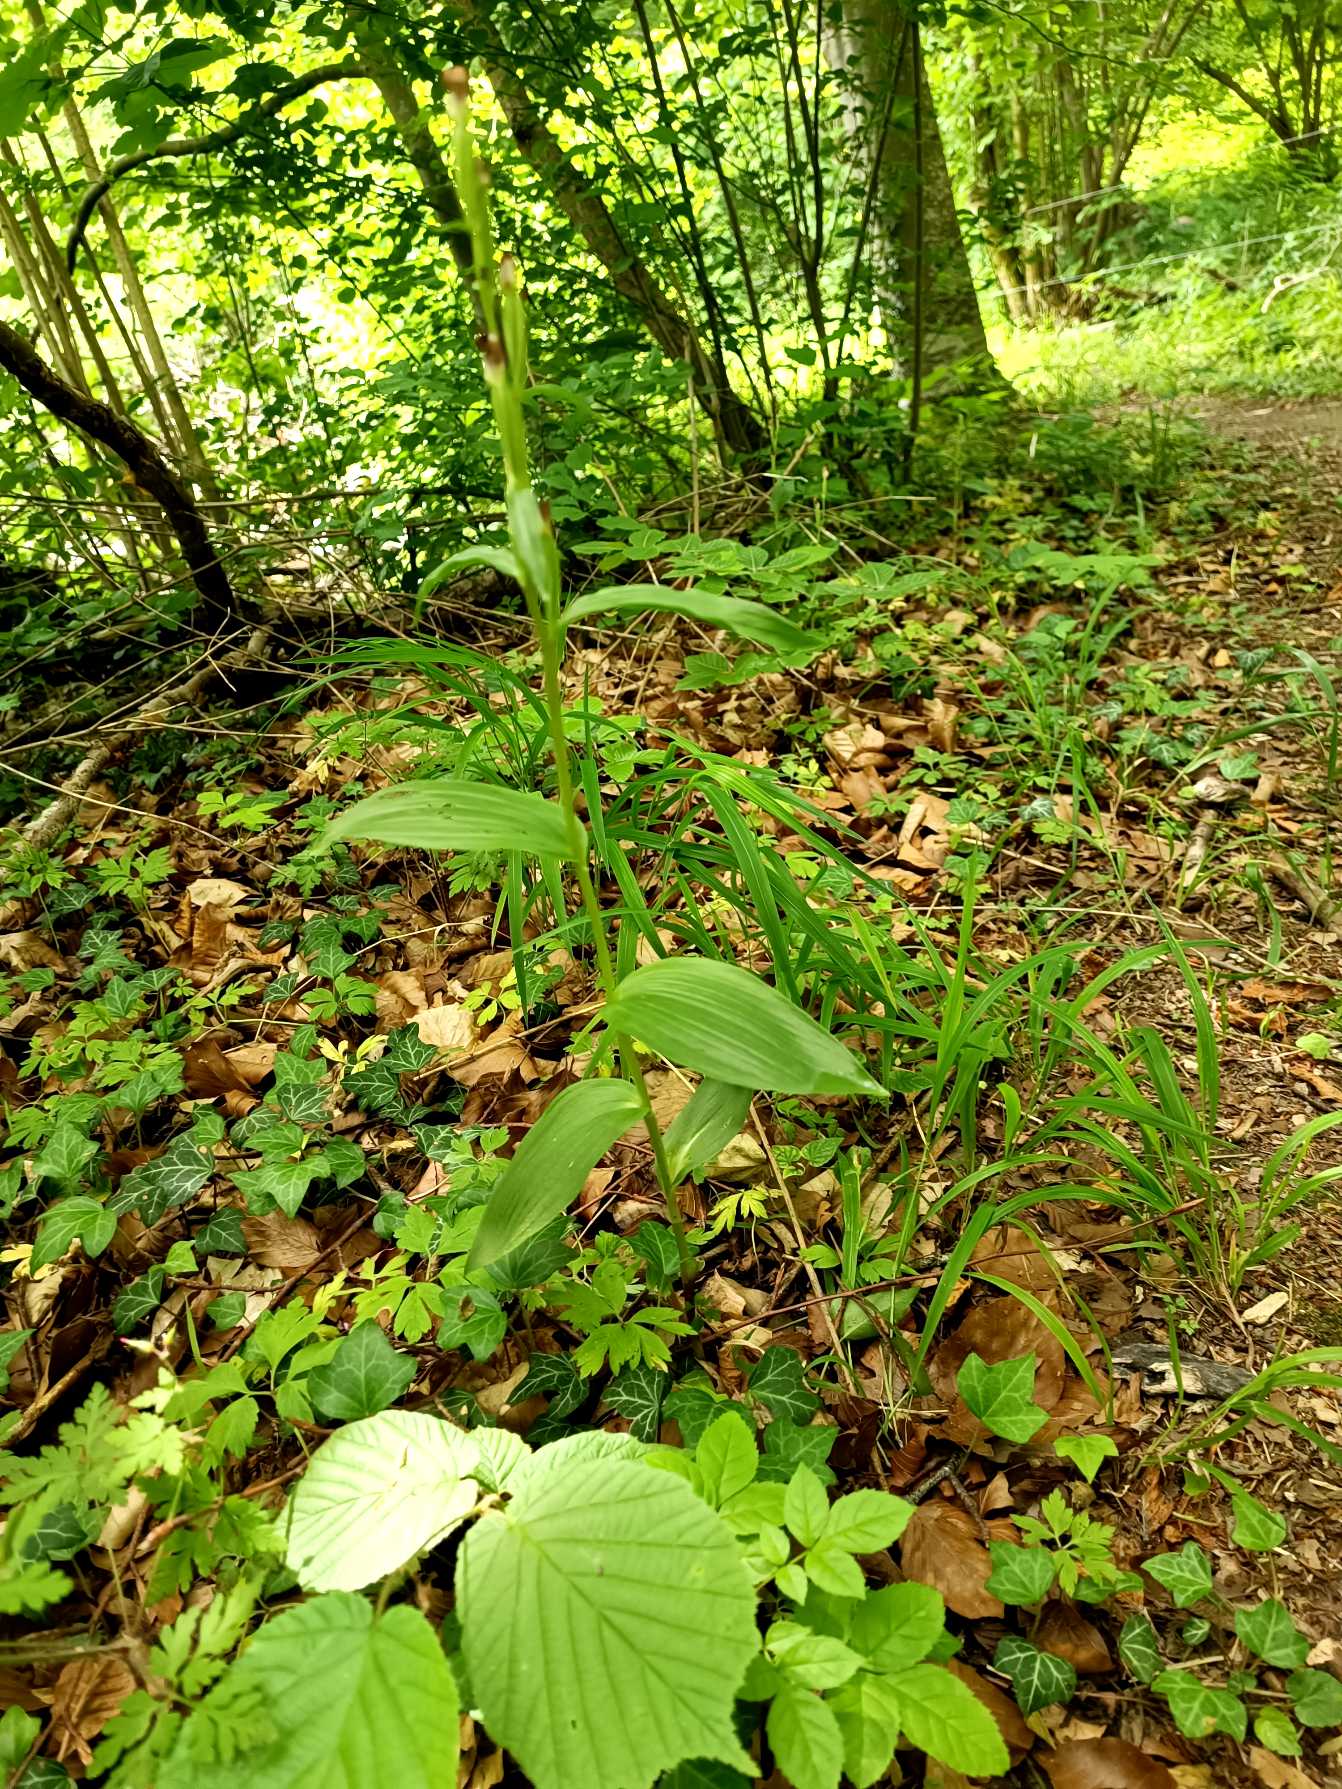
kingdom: Plantae
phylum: Tracheophyta
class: Liliopsida
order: Asparagales
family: Orchidaceae
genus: Cephalanthera
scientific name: Cephalanthera damasonium
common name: Hvidgul skovlilje
